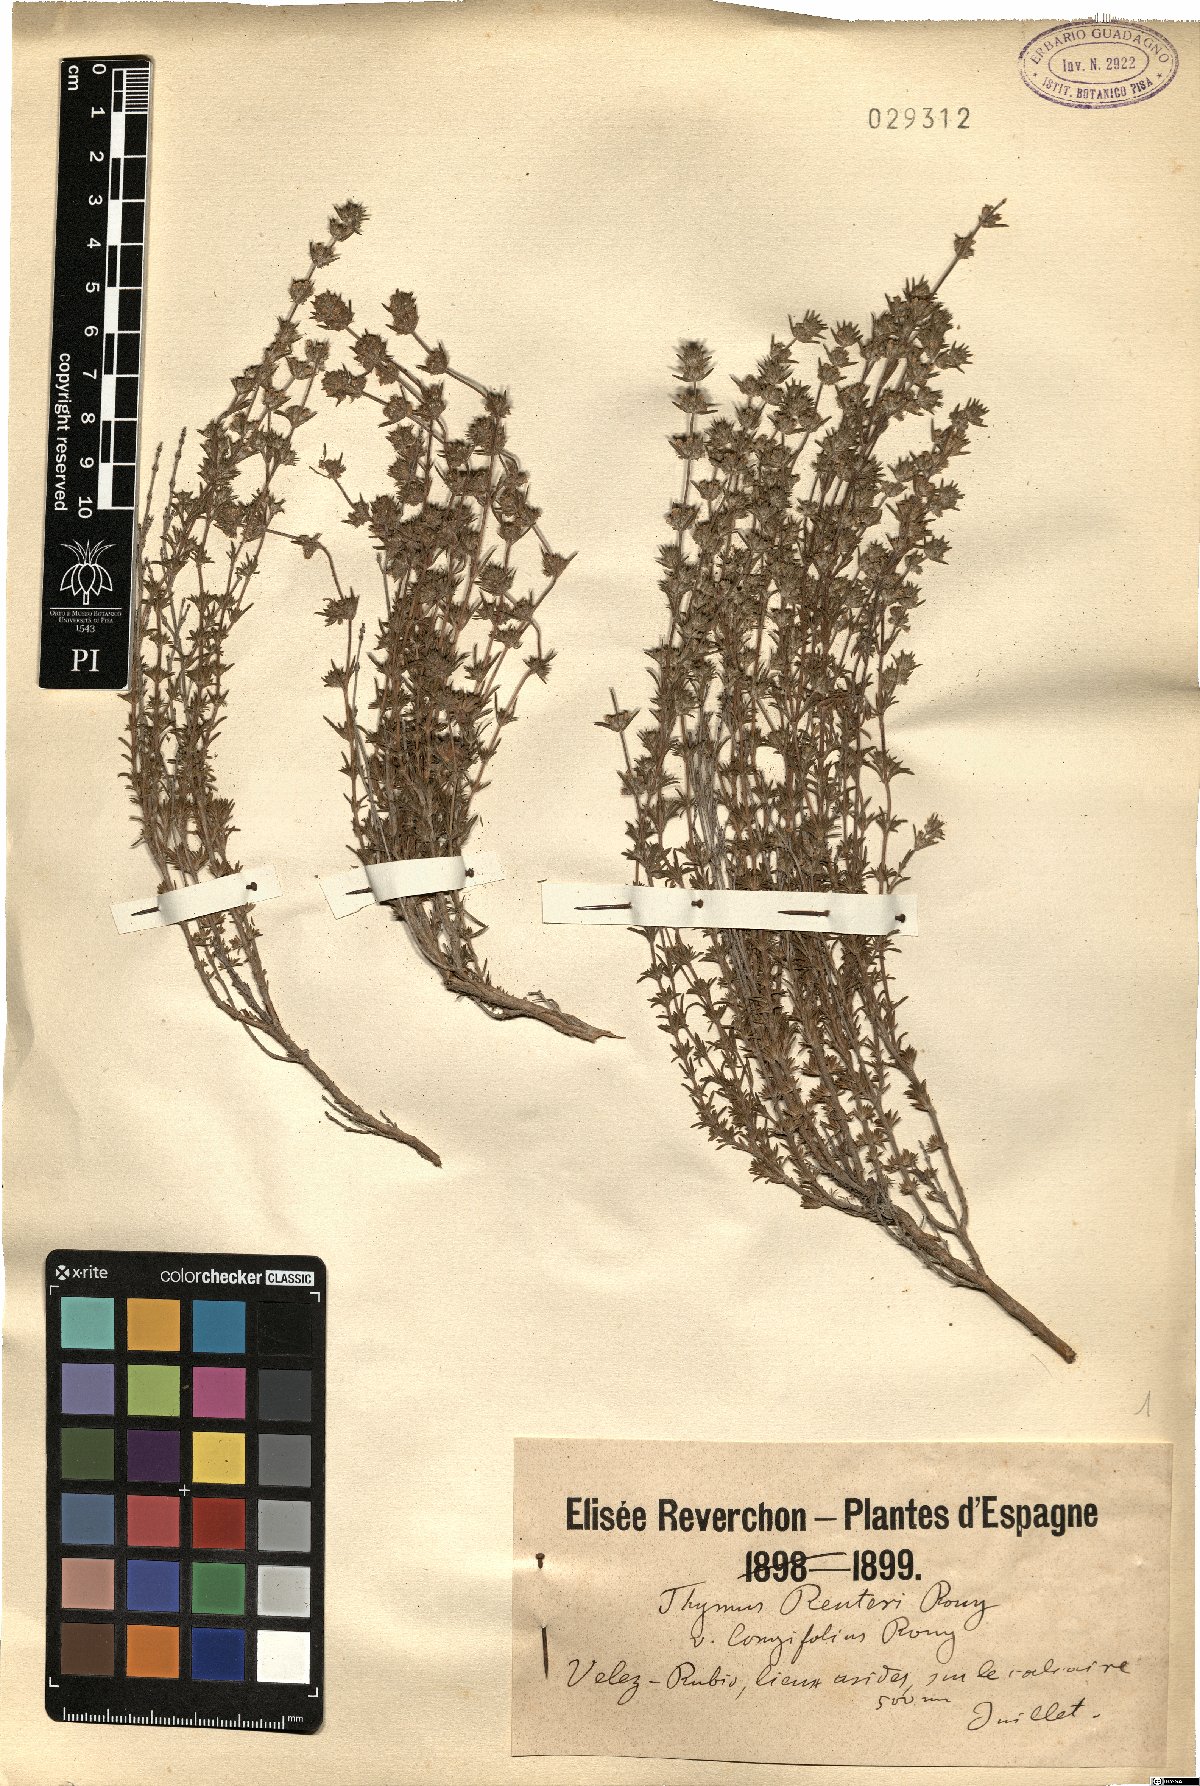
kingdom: Plantae
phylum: Tracheophyta
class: Magnoliopsida
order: Lamiales
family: Lamiaceae
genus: Thymus
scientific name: Thymus vulgaris
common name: Garden thyme
